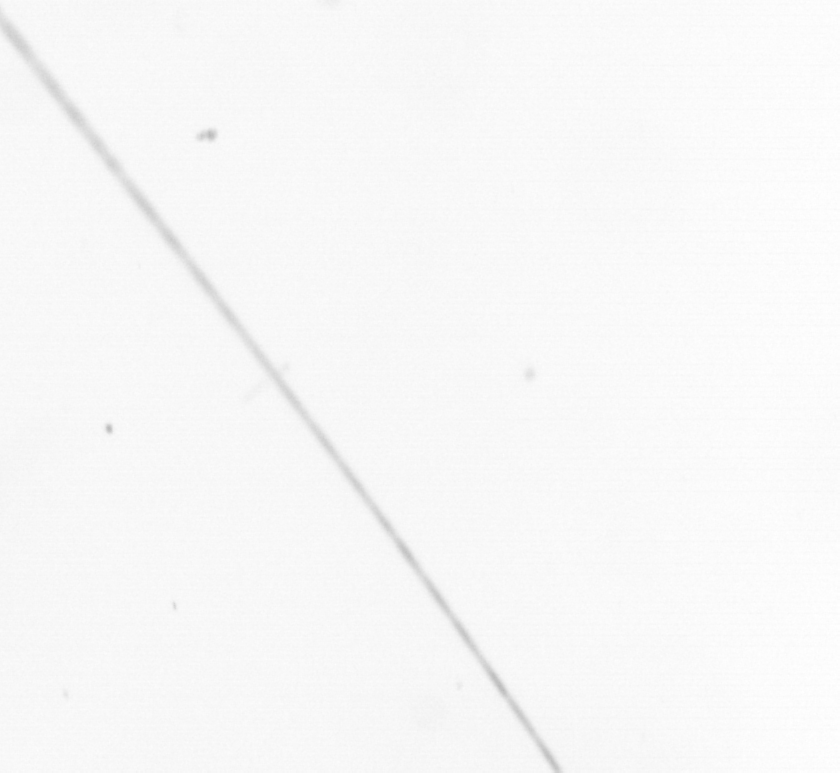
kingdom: Chromista
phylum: Ochrophyta
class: Bacillariophyceae
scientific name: Bacillariophyceae
